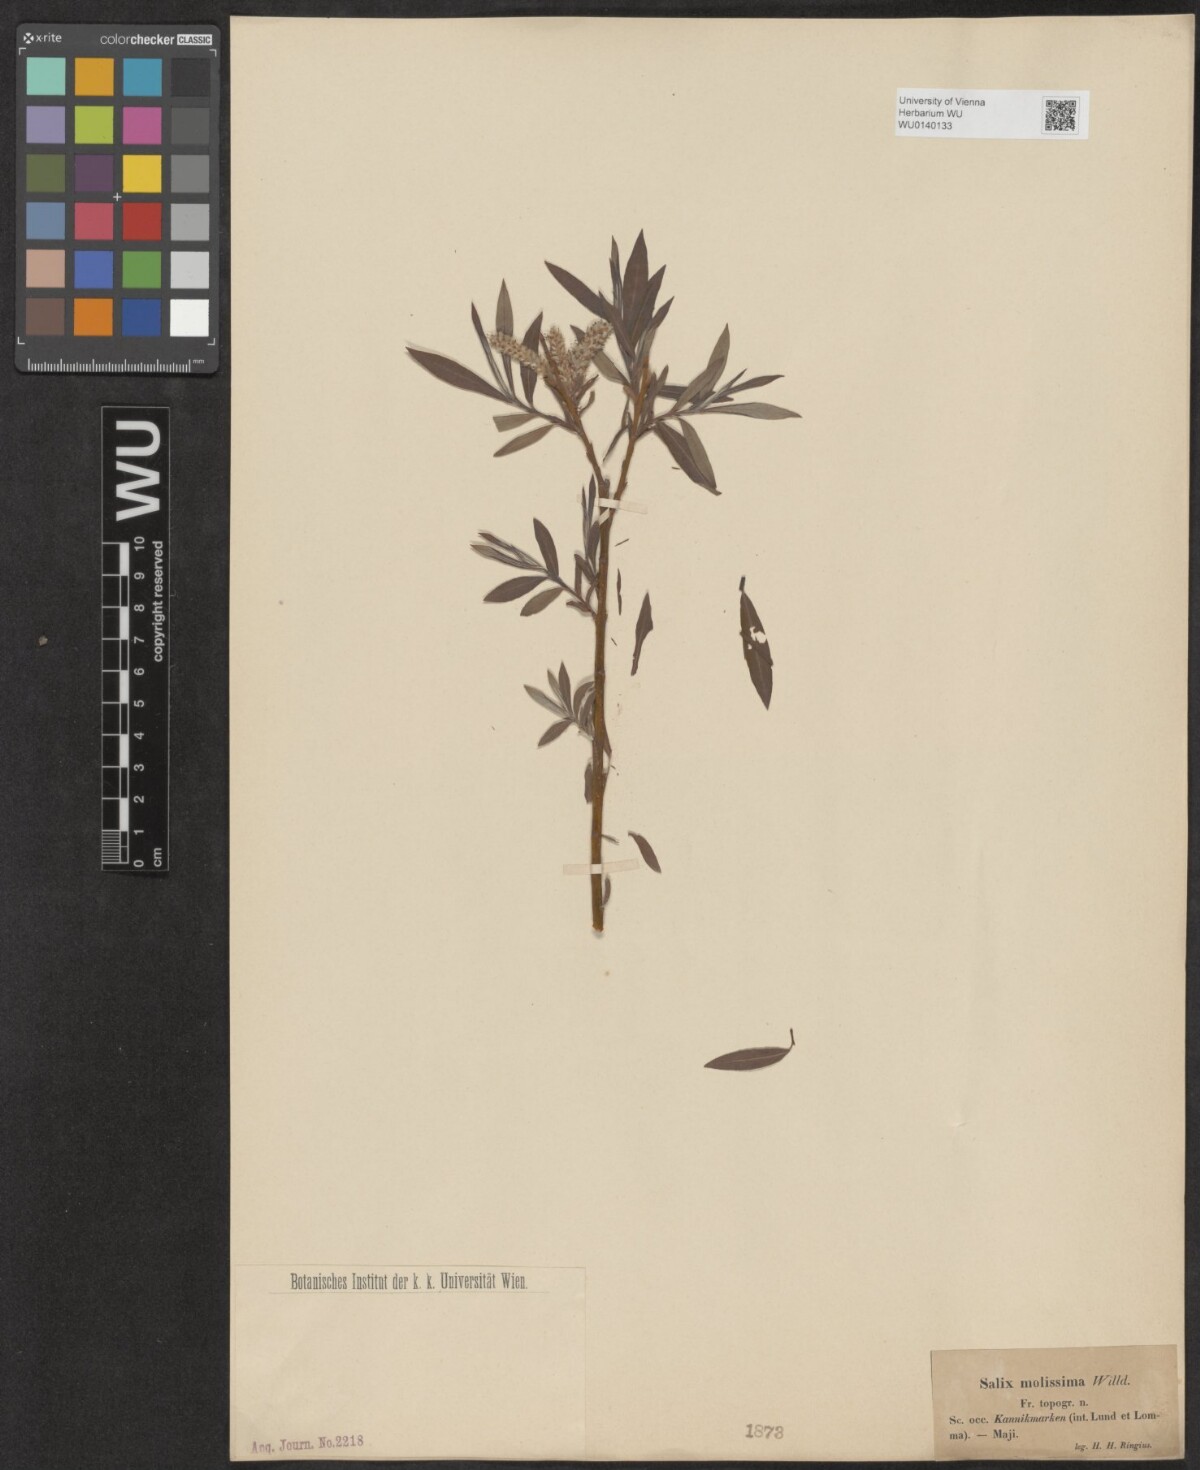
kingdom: Plantae
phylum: Tracheophyta
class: Magnoliopsida
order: Malpighiales
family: Salicaceae
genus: Salix
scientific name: Salix mollissima
